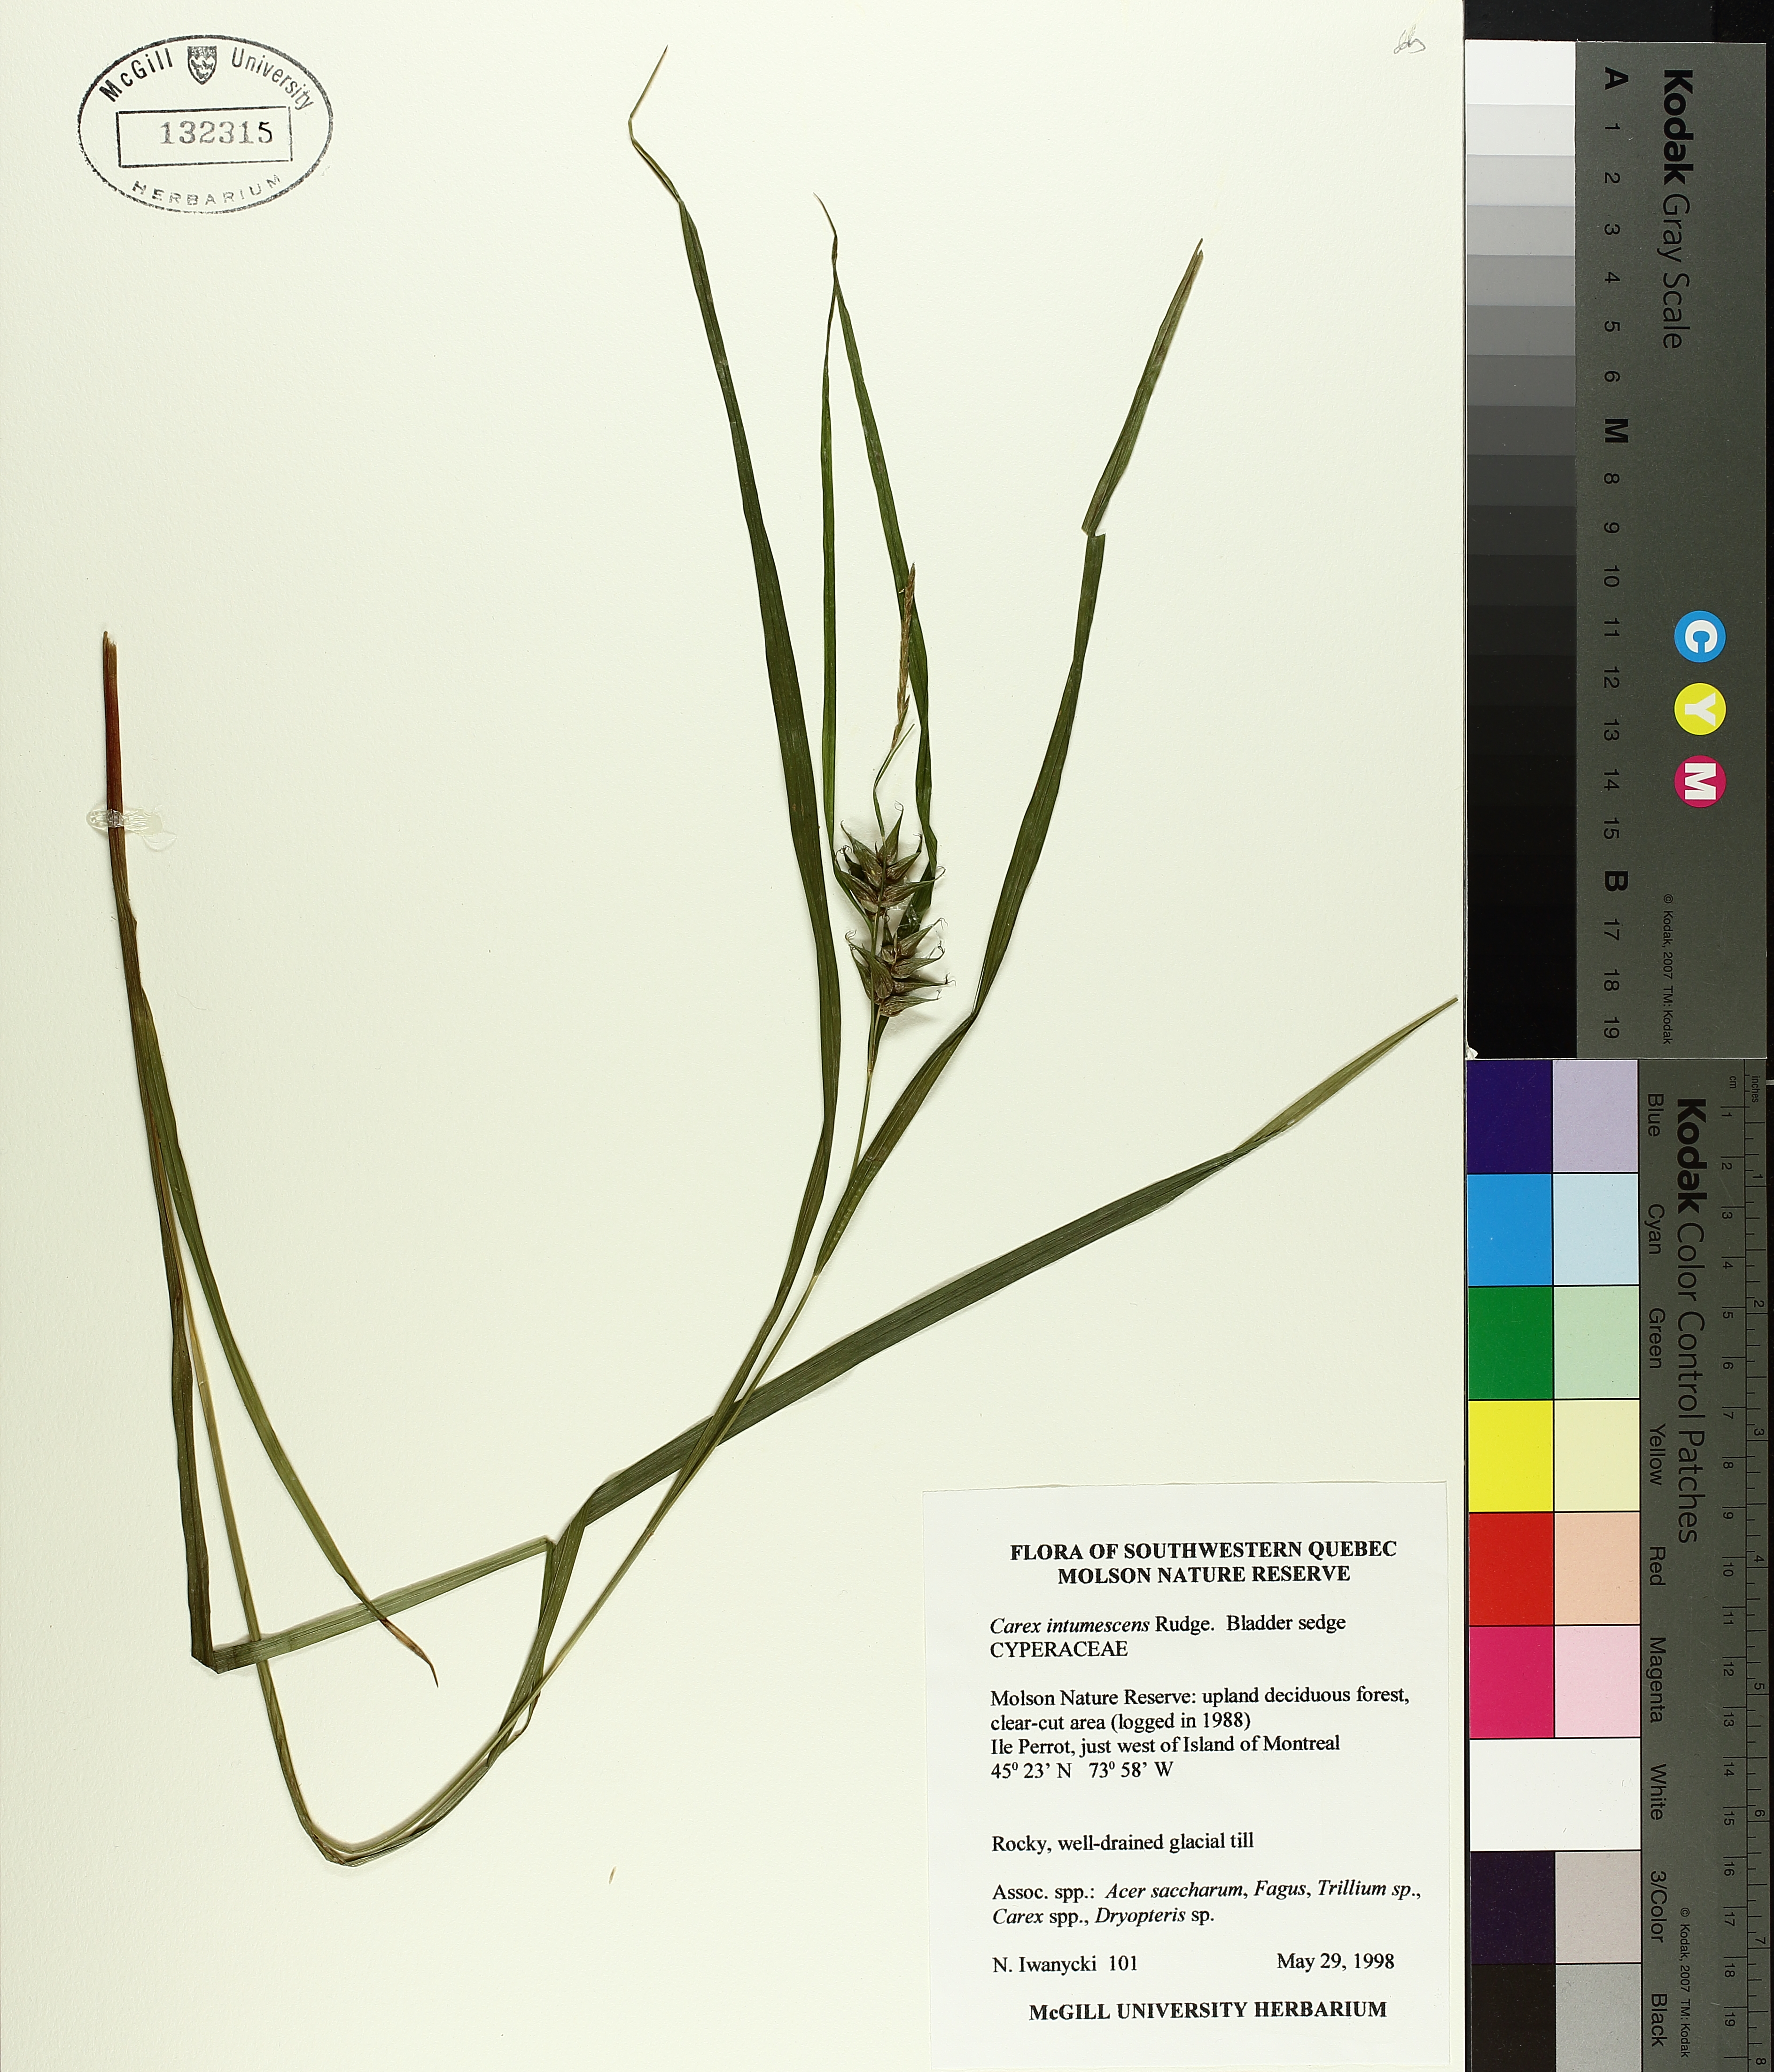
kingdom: Plantae
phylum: Tracheophyta
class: Liliopsida
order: Poales
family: Cyperaceae
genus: Carex
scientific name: Carex intumescens
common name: Greater bladder sedge
